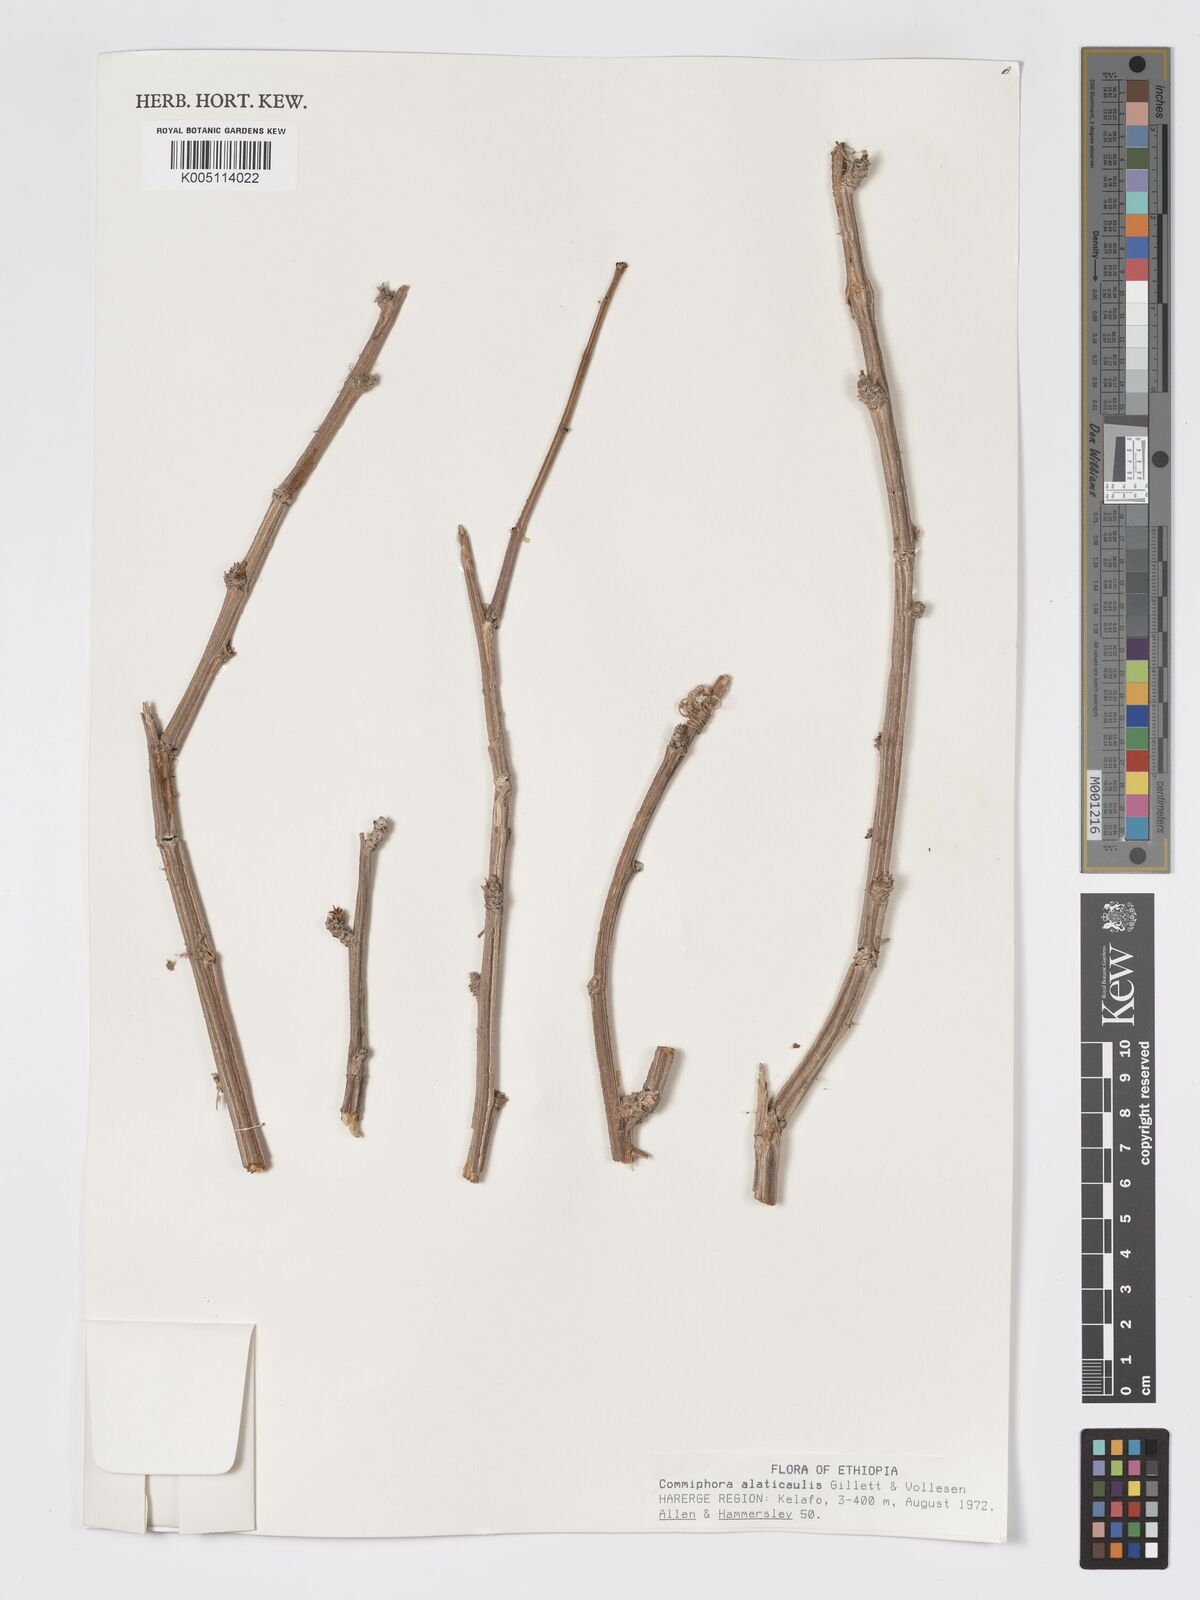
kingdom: Plantae
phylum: Tracheophyta
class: Magnoliopsida
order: Sapindales
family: Burseraceae
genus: Commiphora
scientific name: Commiphora alaticaulis
